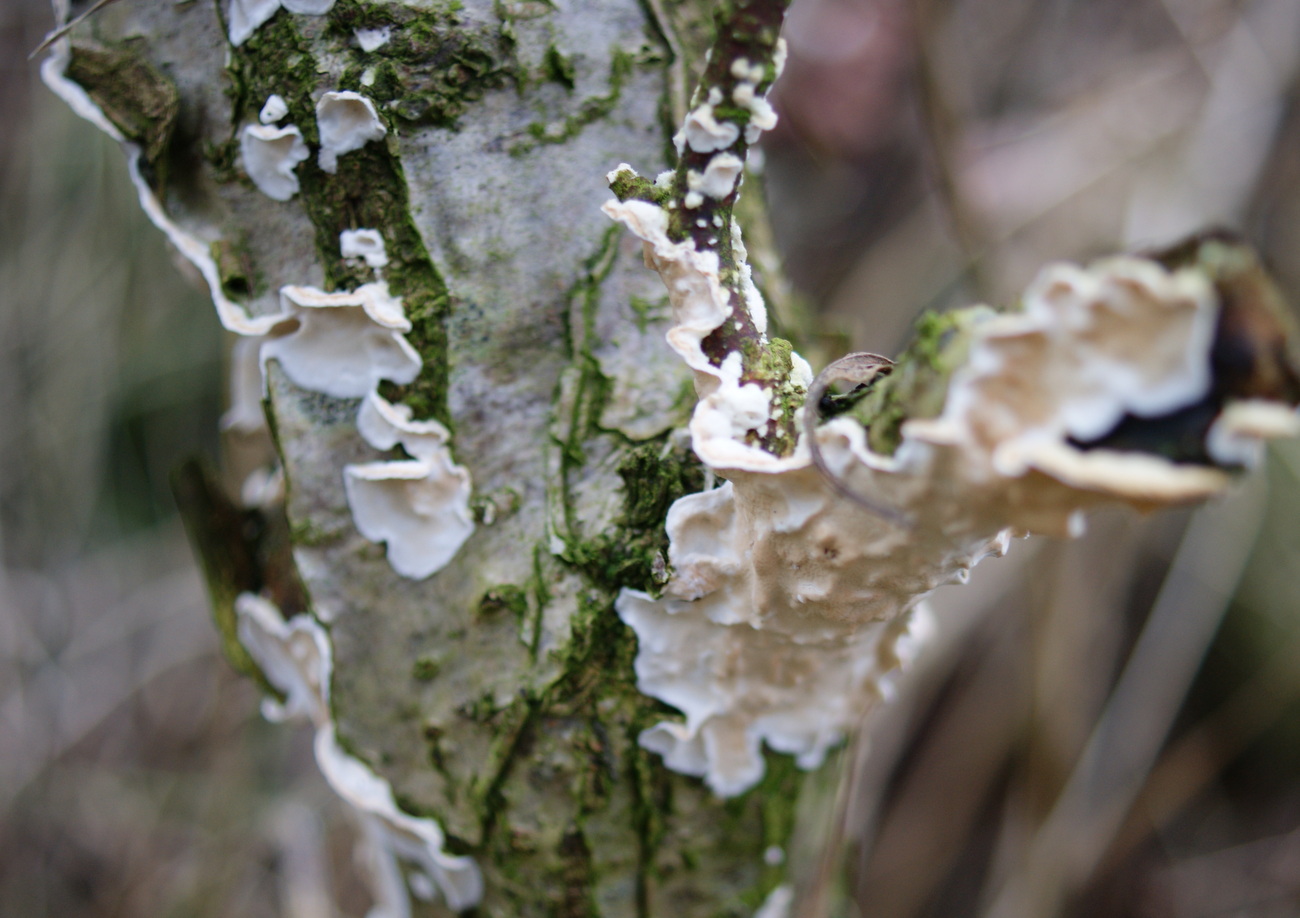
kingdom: Fungi
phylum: Basidiomycota
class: Agaricomycetes
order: Polyporales
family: Irpicaceae
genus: Byssomerulius
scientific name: Byssomerulius corium
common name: læder-åresvamp
